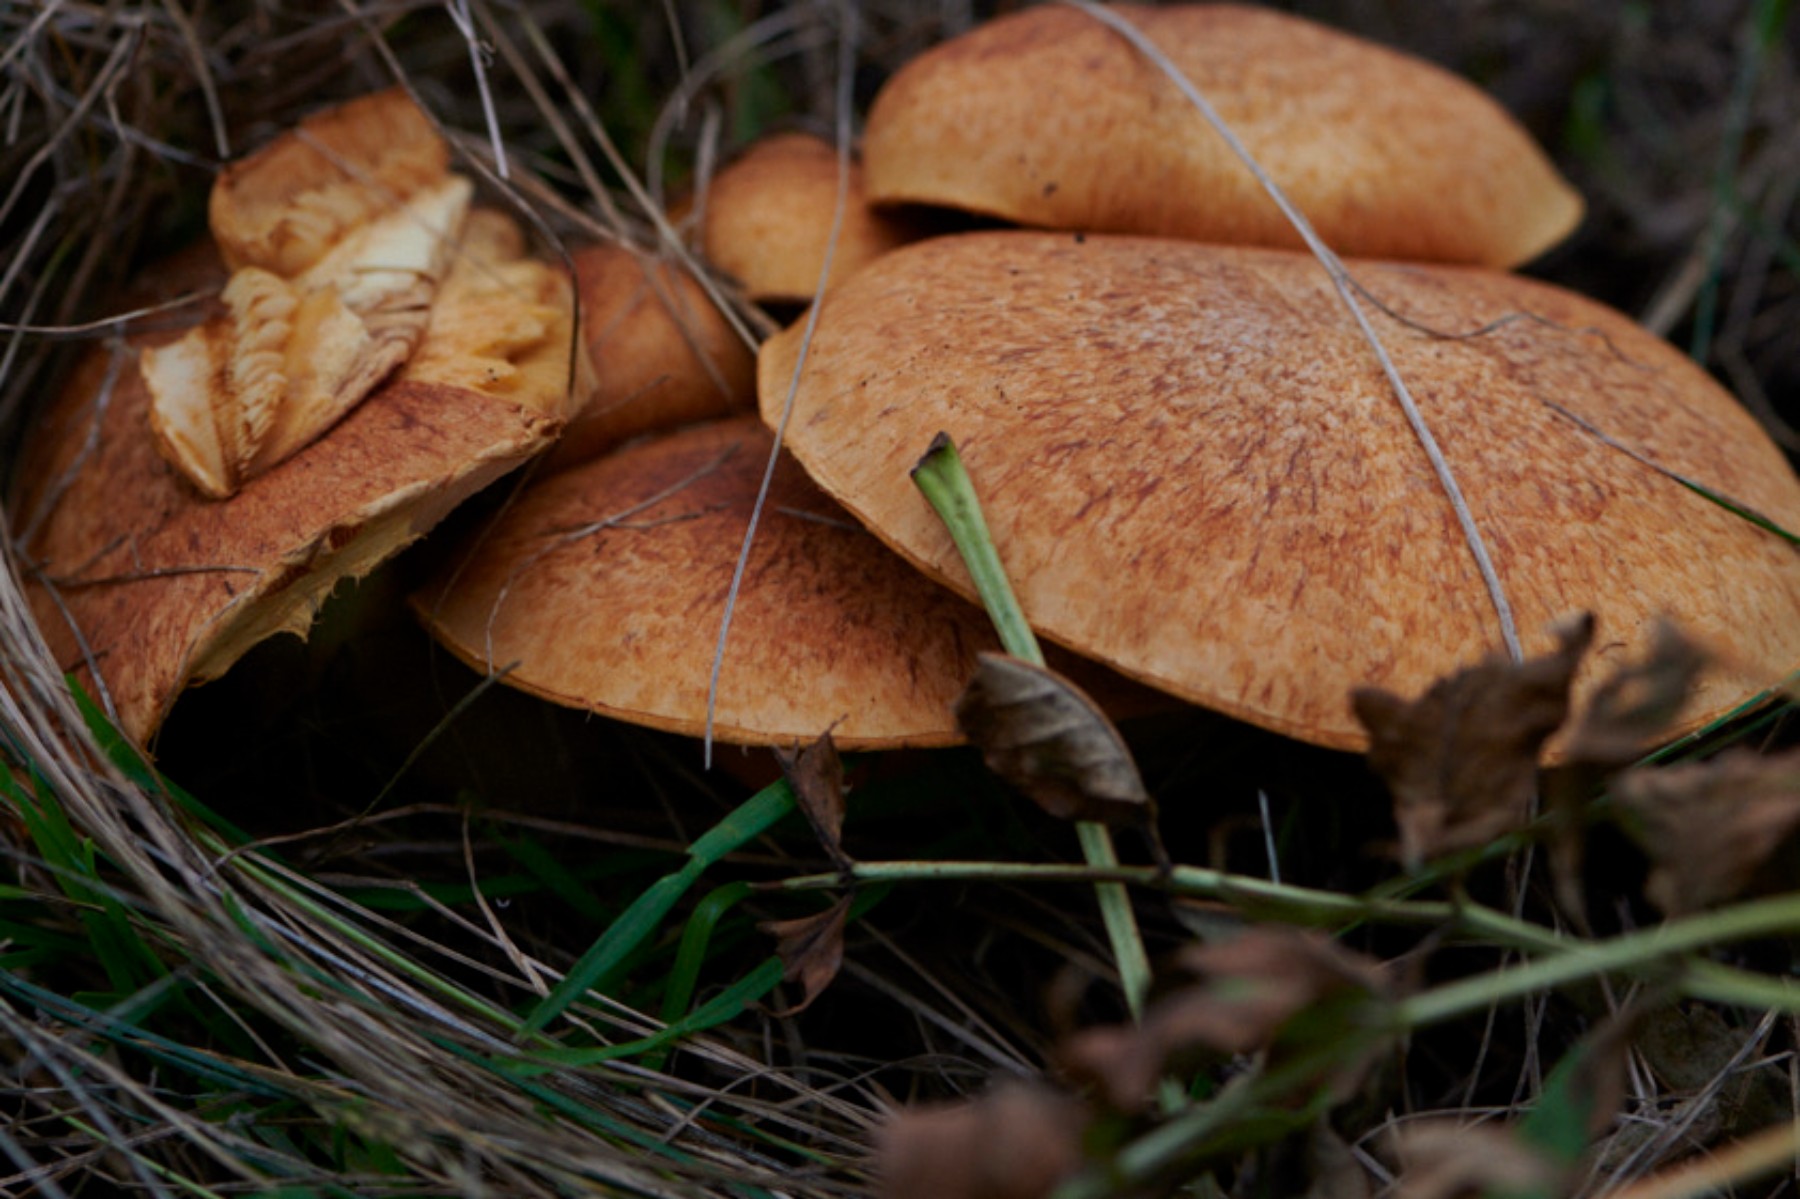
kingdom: Fungi
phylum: Basidiomycota
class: Agaricomycetes
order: Agaricales
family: Hymenogastraceae
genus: Gymnopilus
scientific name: Gymnopilus spectabilis
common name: fibret flammehat
